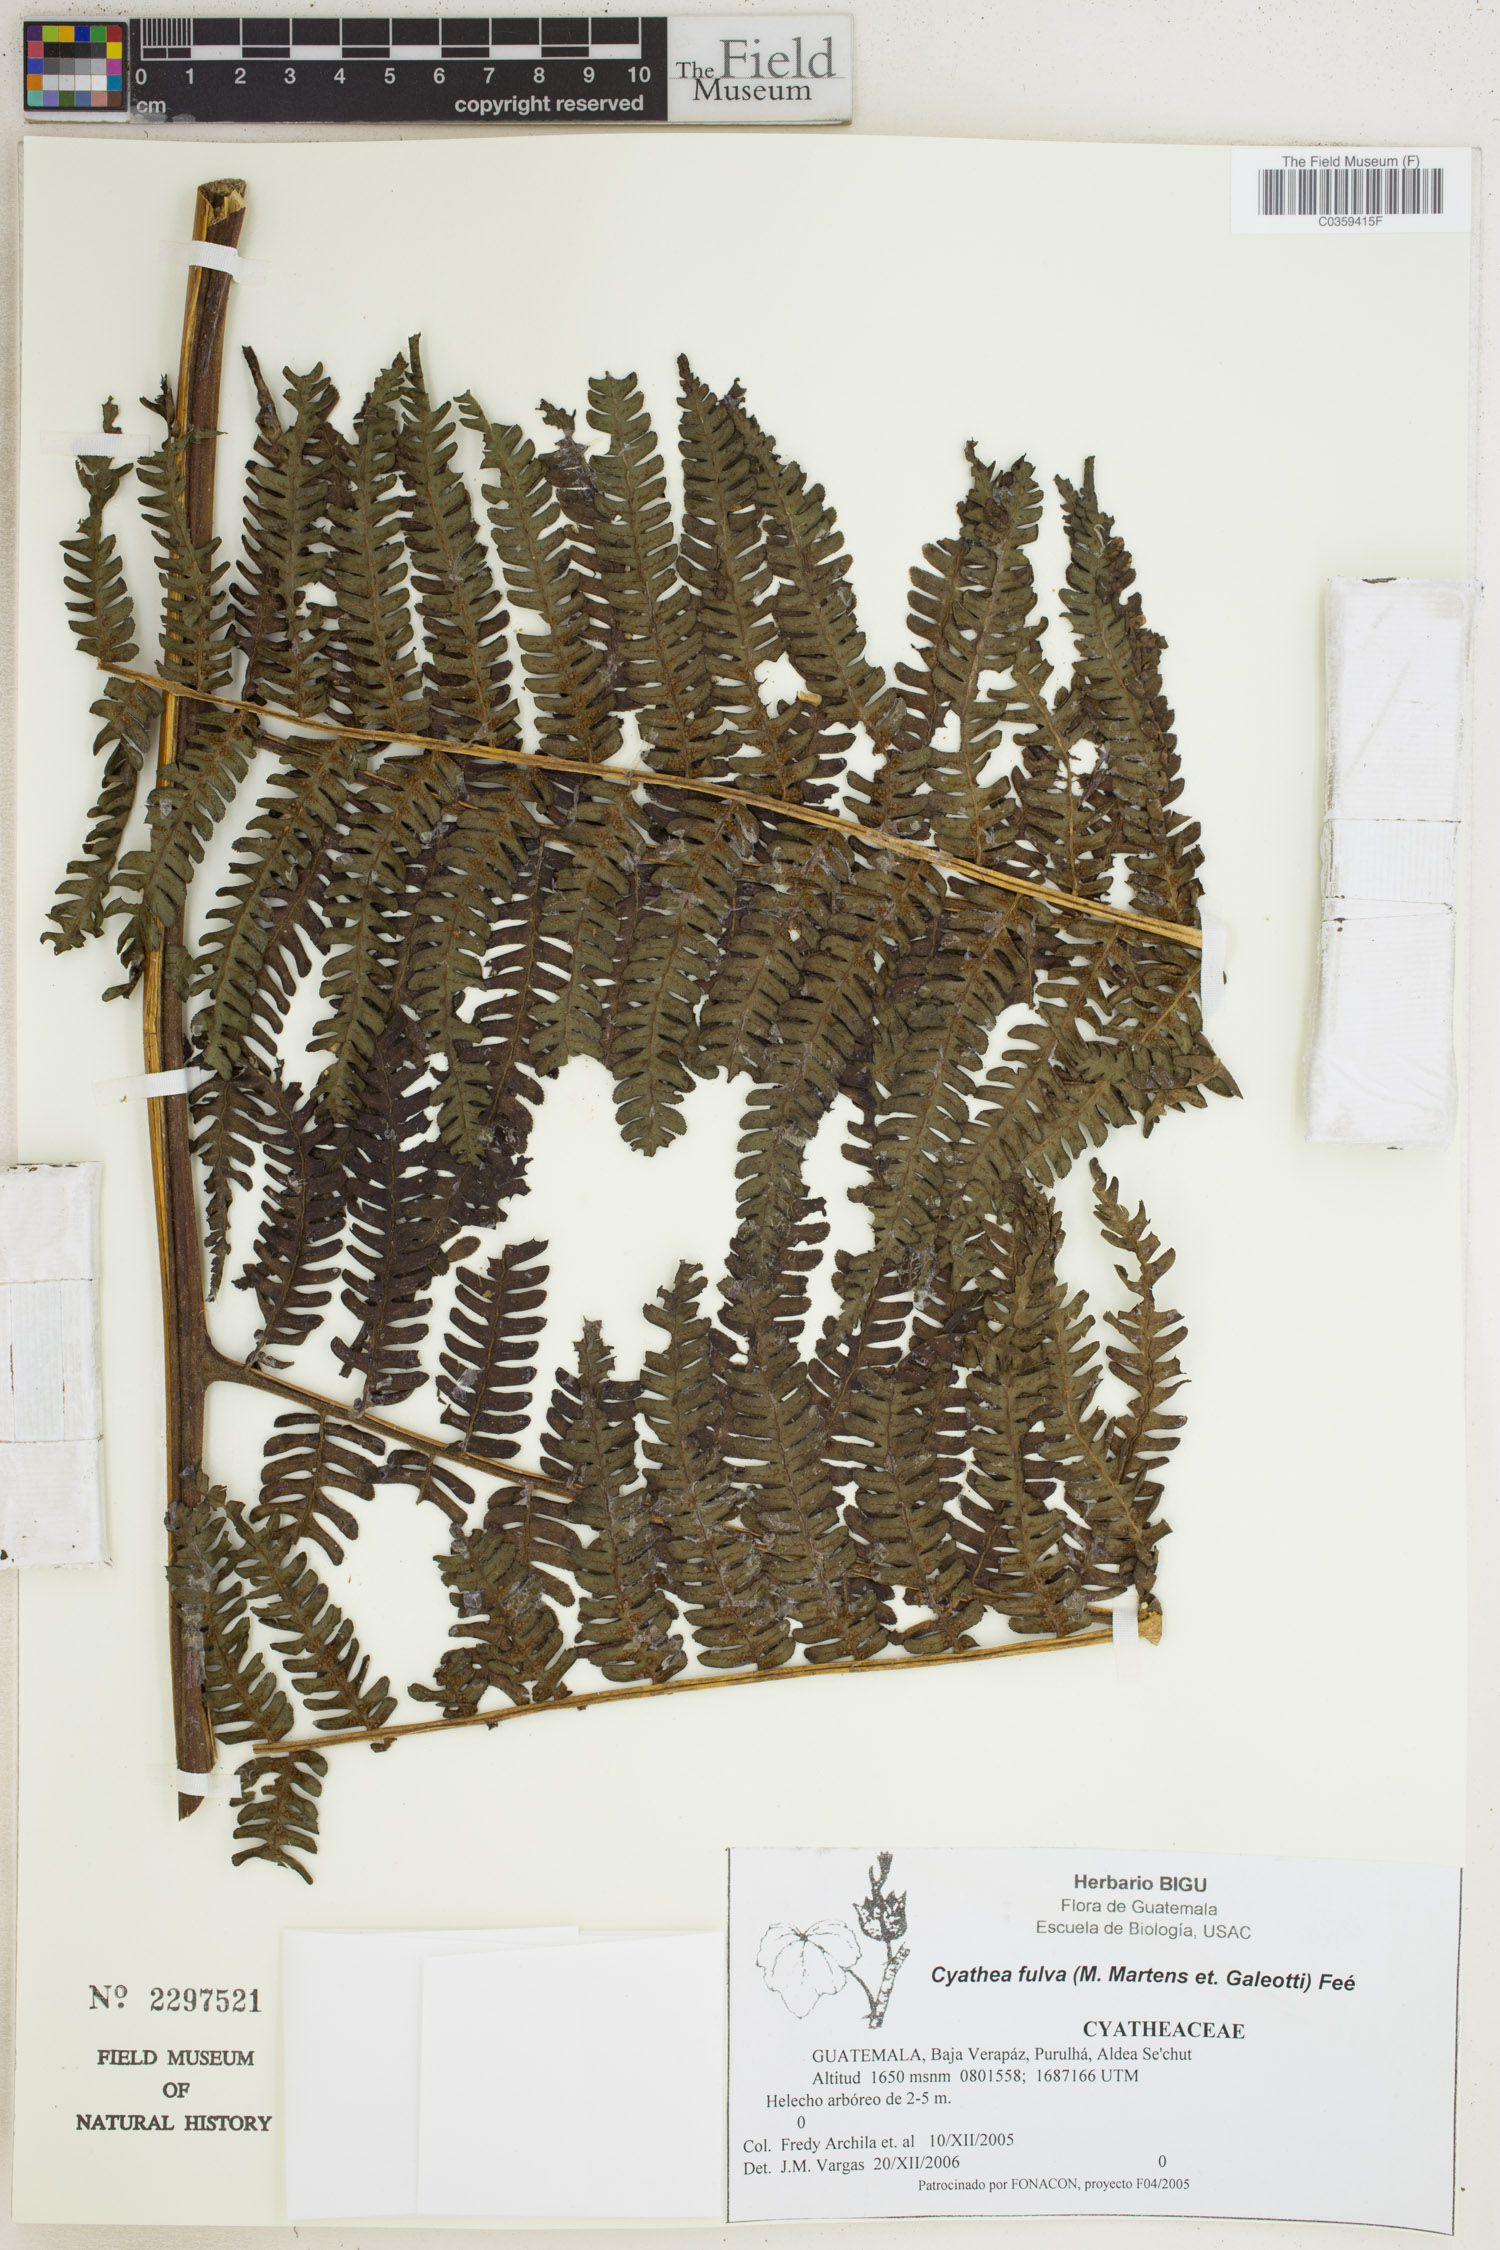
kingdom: Plantae
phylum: Tracheophyta
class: Polypodiopsida
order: Cyatheales
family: Cyatheaceae
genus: Cyathea
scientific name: Cyathea fulva
